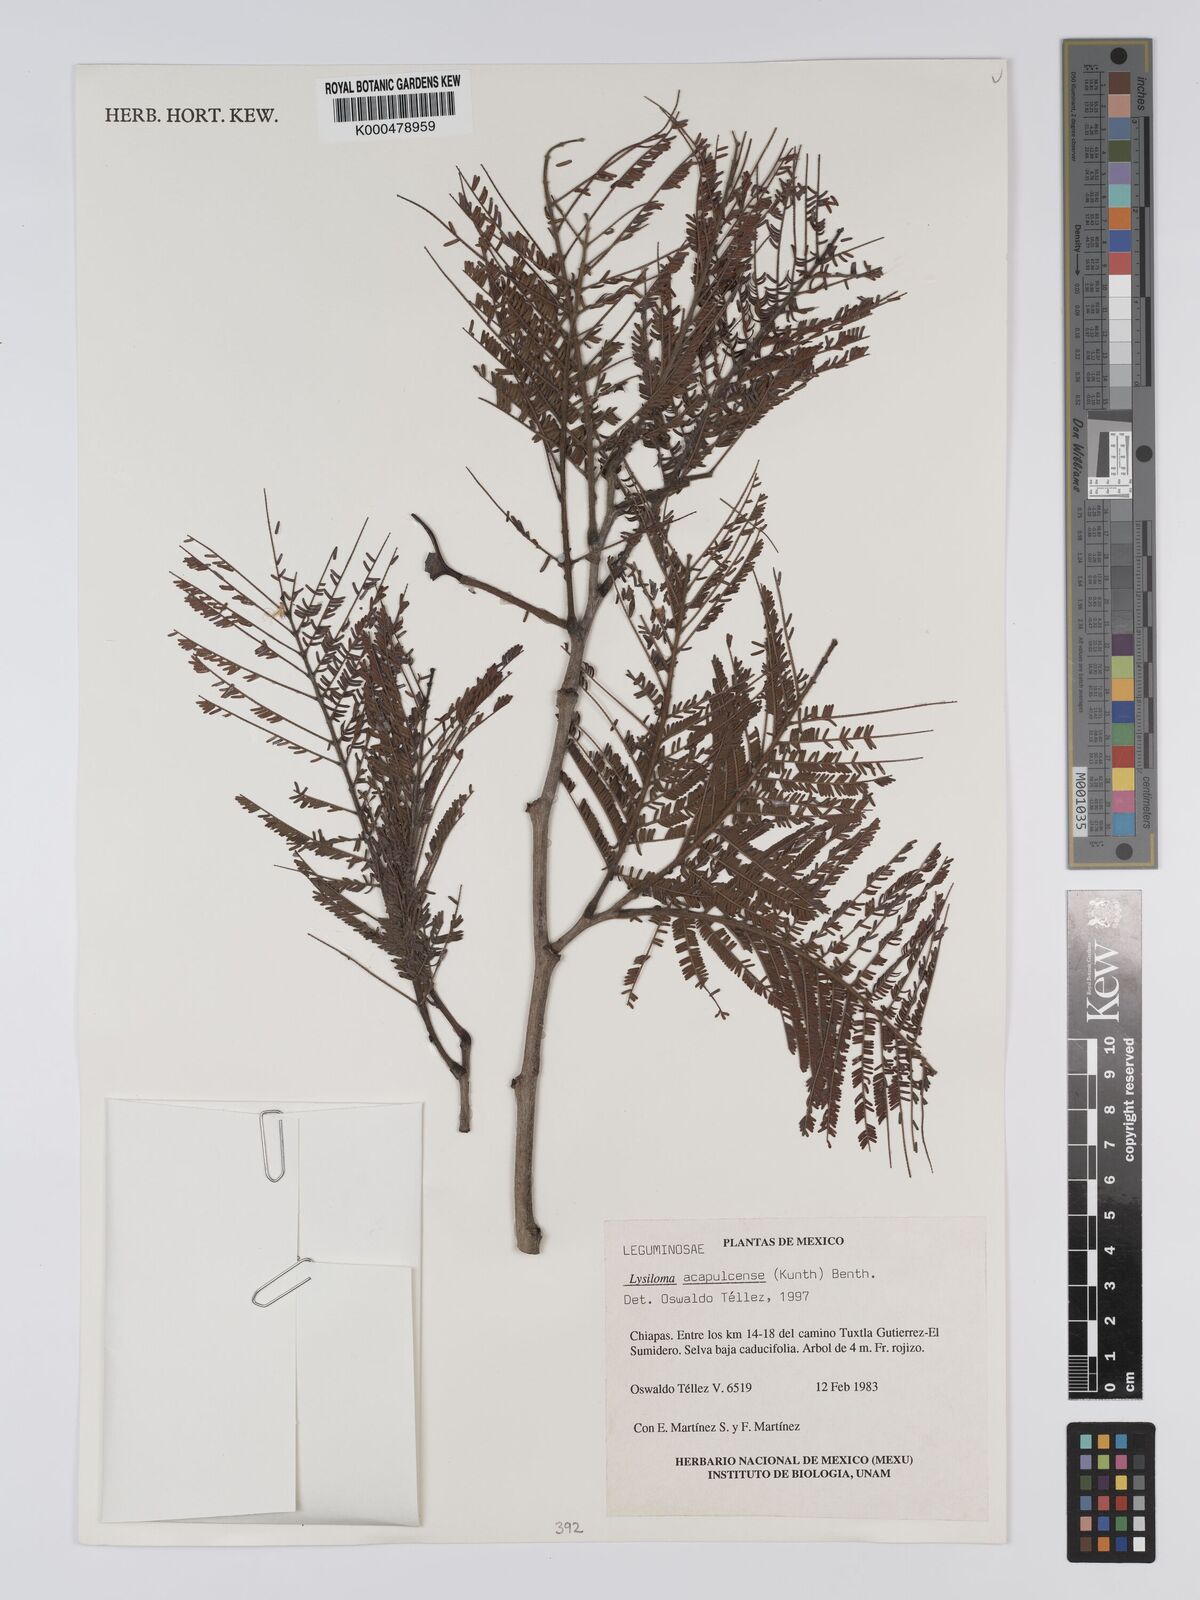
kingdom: Plantae
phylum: Tracheophyta
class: Magnoliopsida
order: Fabales
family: Fabaceae
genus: Lysiloma
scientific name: Lysiloma
